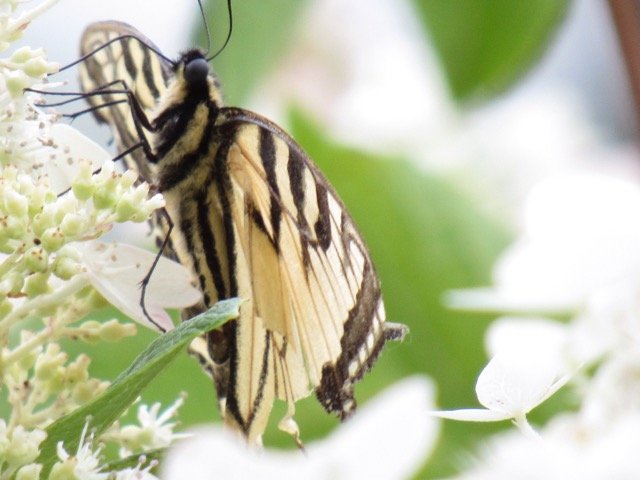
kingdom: Animalia
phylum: Arthropoda
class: Insecta
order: Lepidoptera
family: Papilionidae
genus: Pterourus
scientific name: Pterourus
